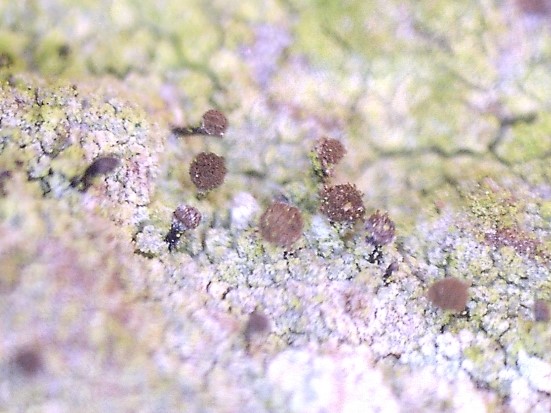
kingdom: Fungi
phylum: Ascomycota
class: Lecanoromycetes
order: Caliciales
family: Caliciaceae
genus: Calicium
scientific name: Calicium adspersum
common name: tyk nålelav
